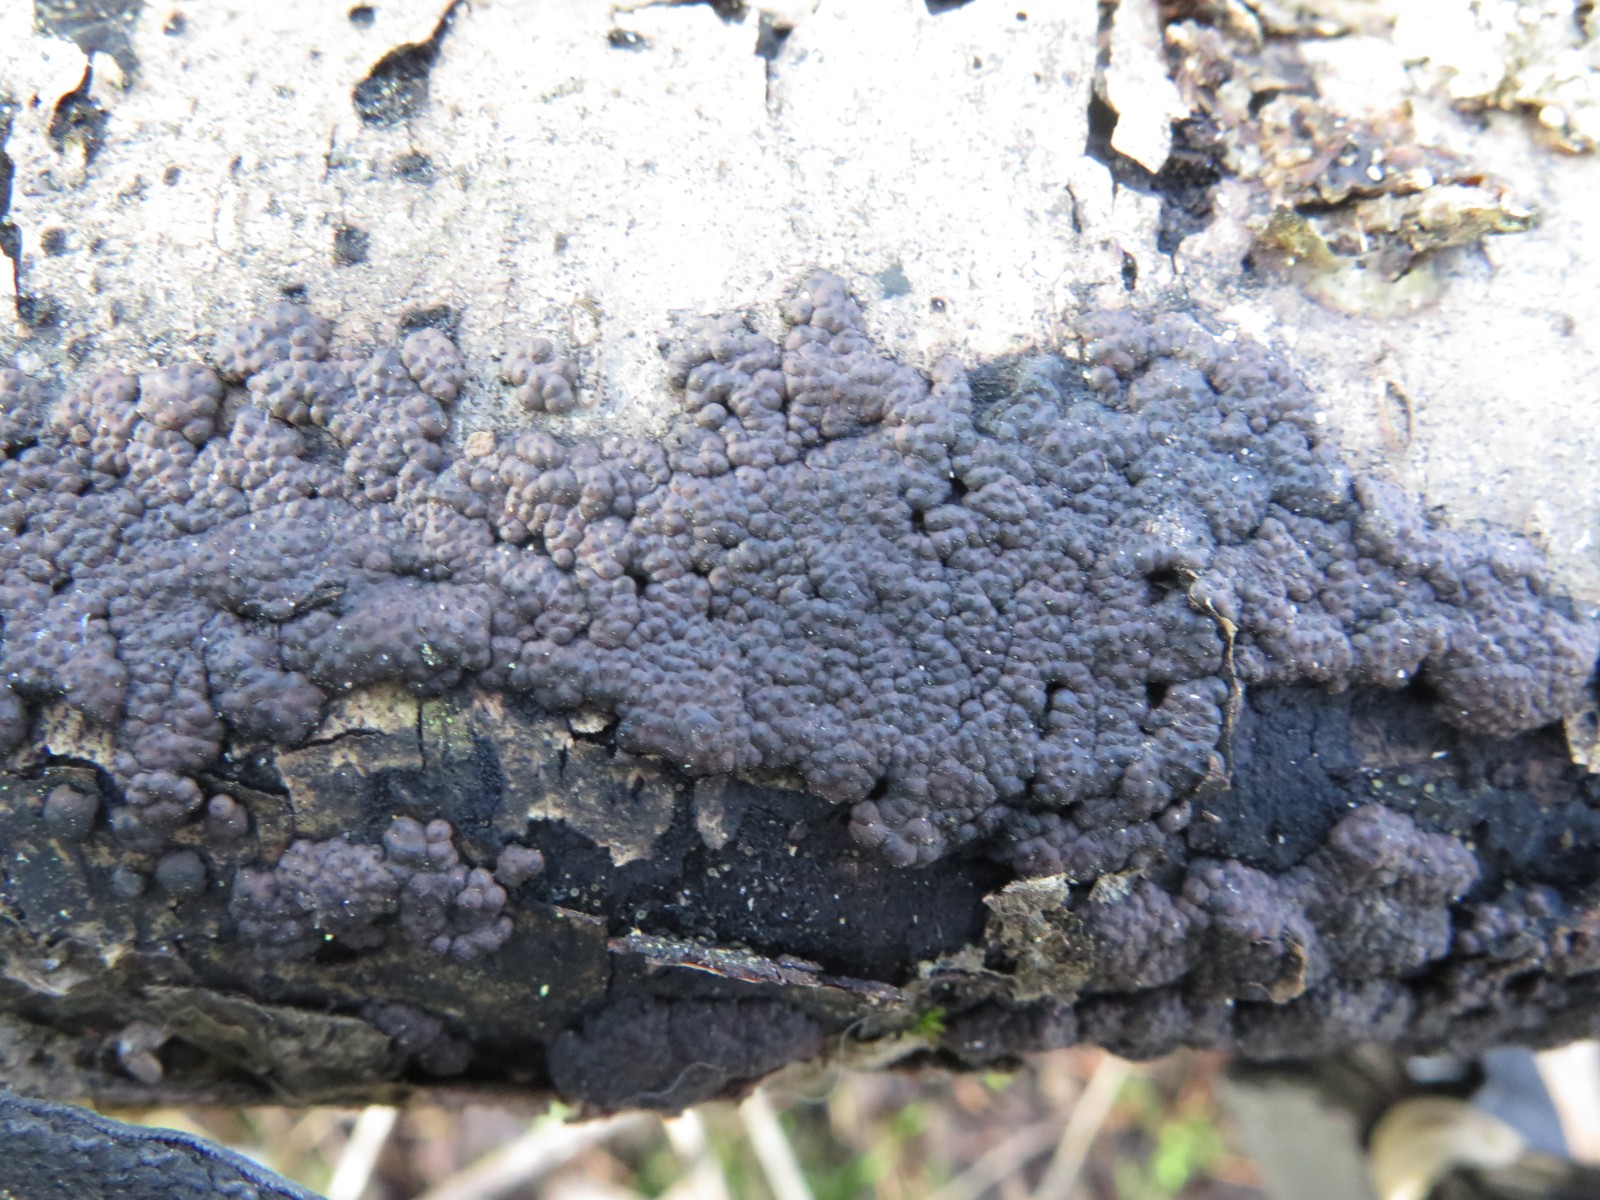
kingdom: Fungi
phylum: Ascomycota
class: Sordariomycetes
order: Xylariales
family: Hypoxylaceae
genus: Jackrogersella
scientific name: Jackrogersella multiformis
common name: foranderlig kulbær
